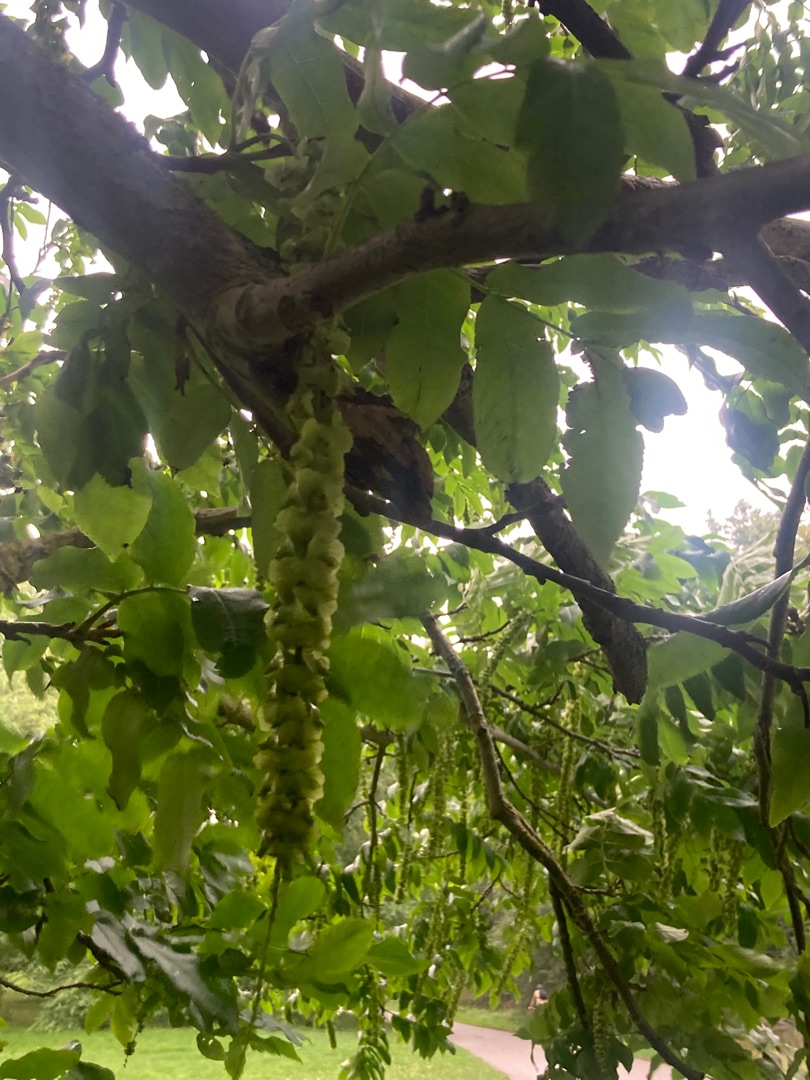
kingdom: Plantae
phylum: Tracheophyta
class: Magnoliopsida
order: Fagales
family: Juglandaceae
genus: Pterocarya
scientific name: Pterocarya fraxinifolia
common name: Kaukasisk vingevalnød
